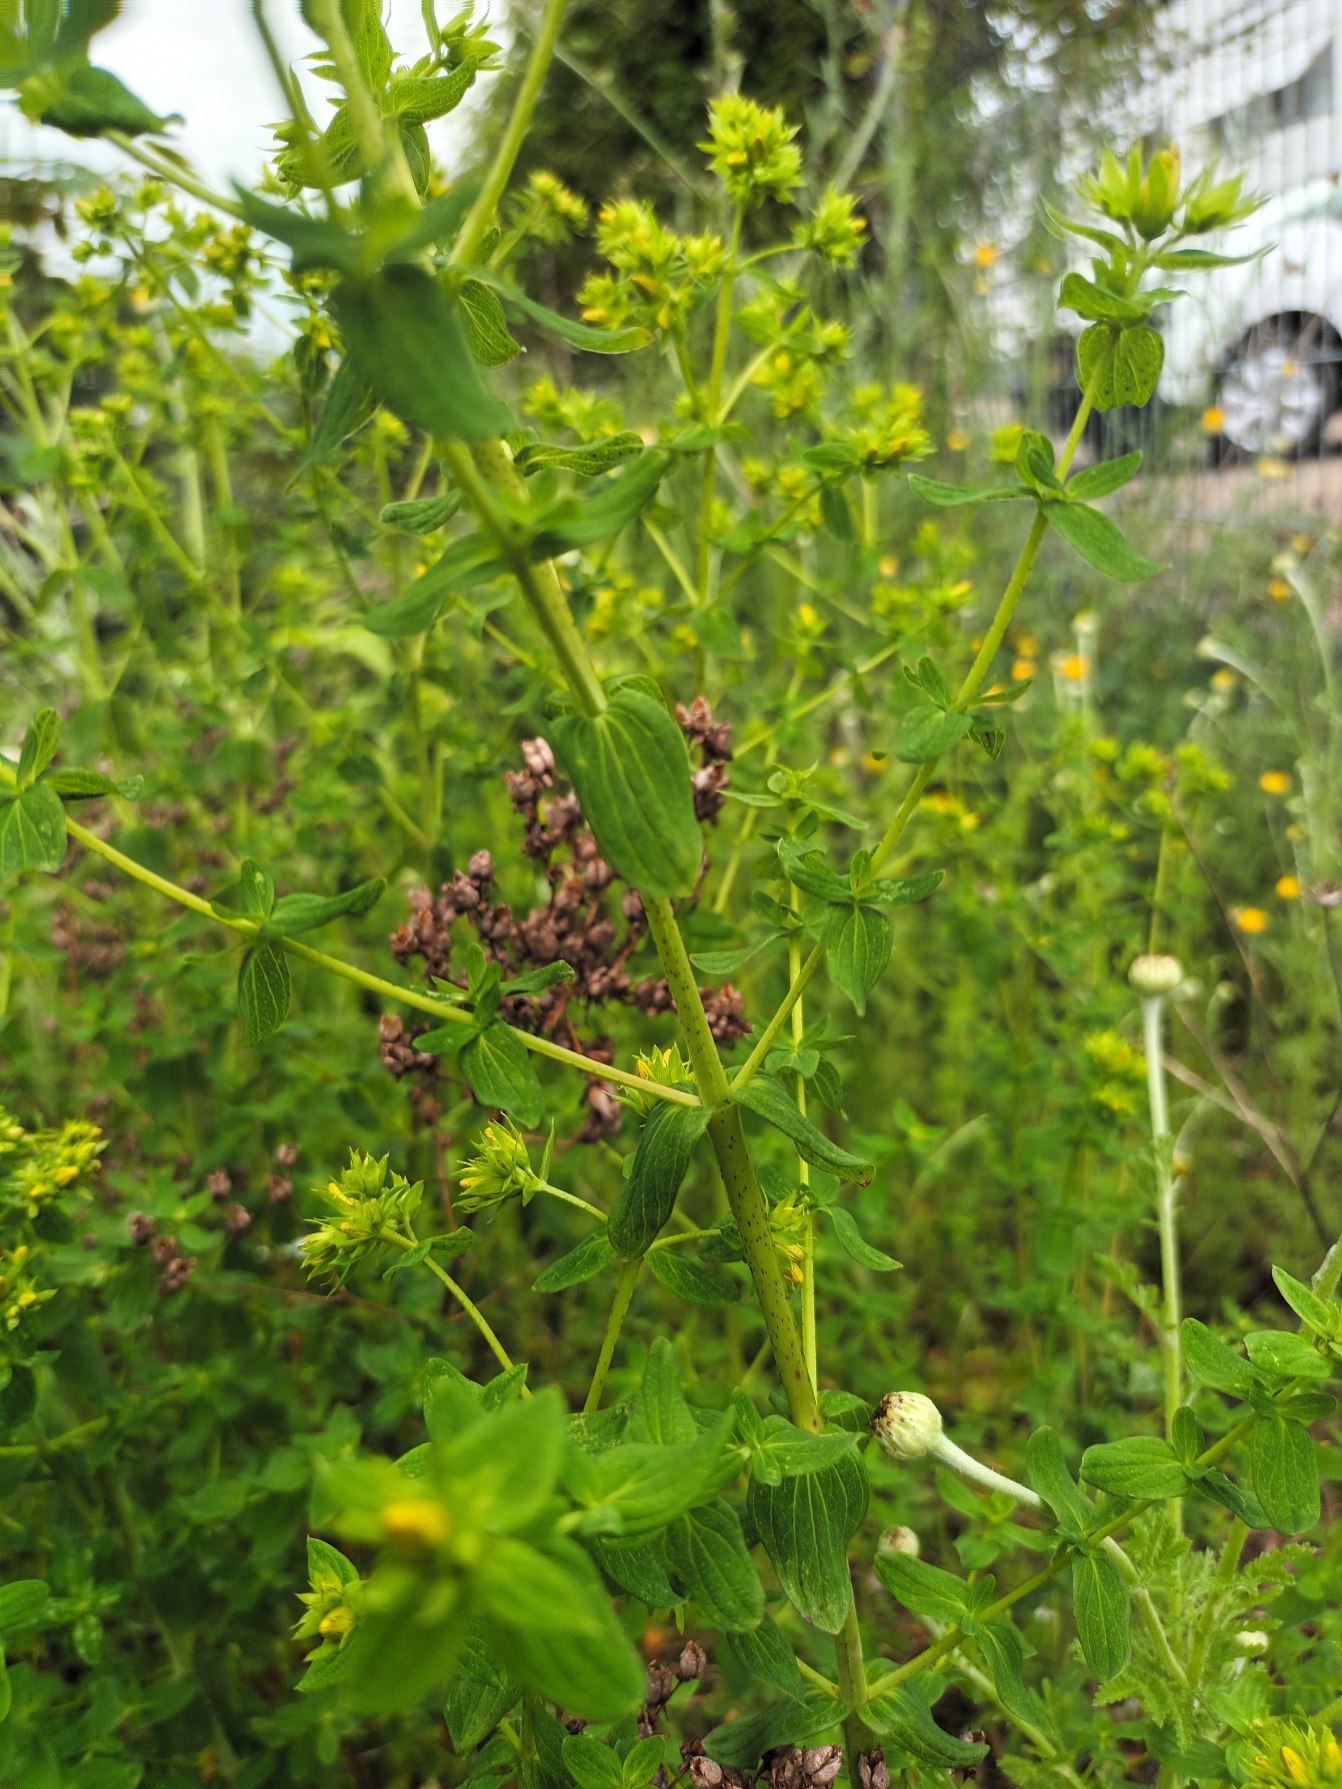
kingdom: Plantae
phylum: Tracheophyta
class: Magnoliopsida
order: Malpighiales
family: Hypericaceae
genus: Hypericum
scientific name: Hypericum perforatum
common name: Prikbladet perikon
